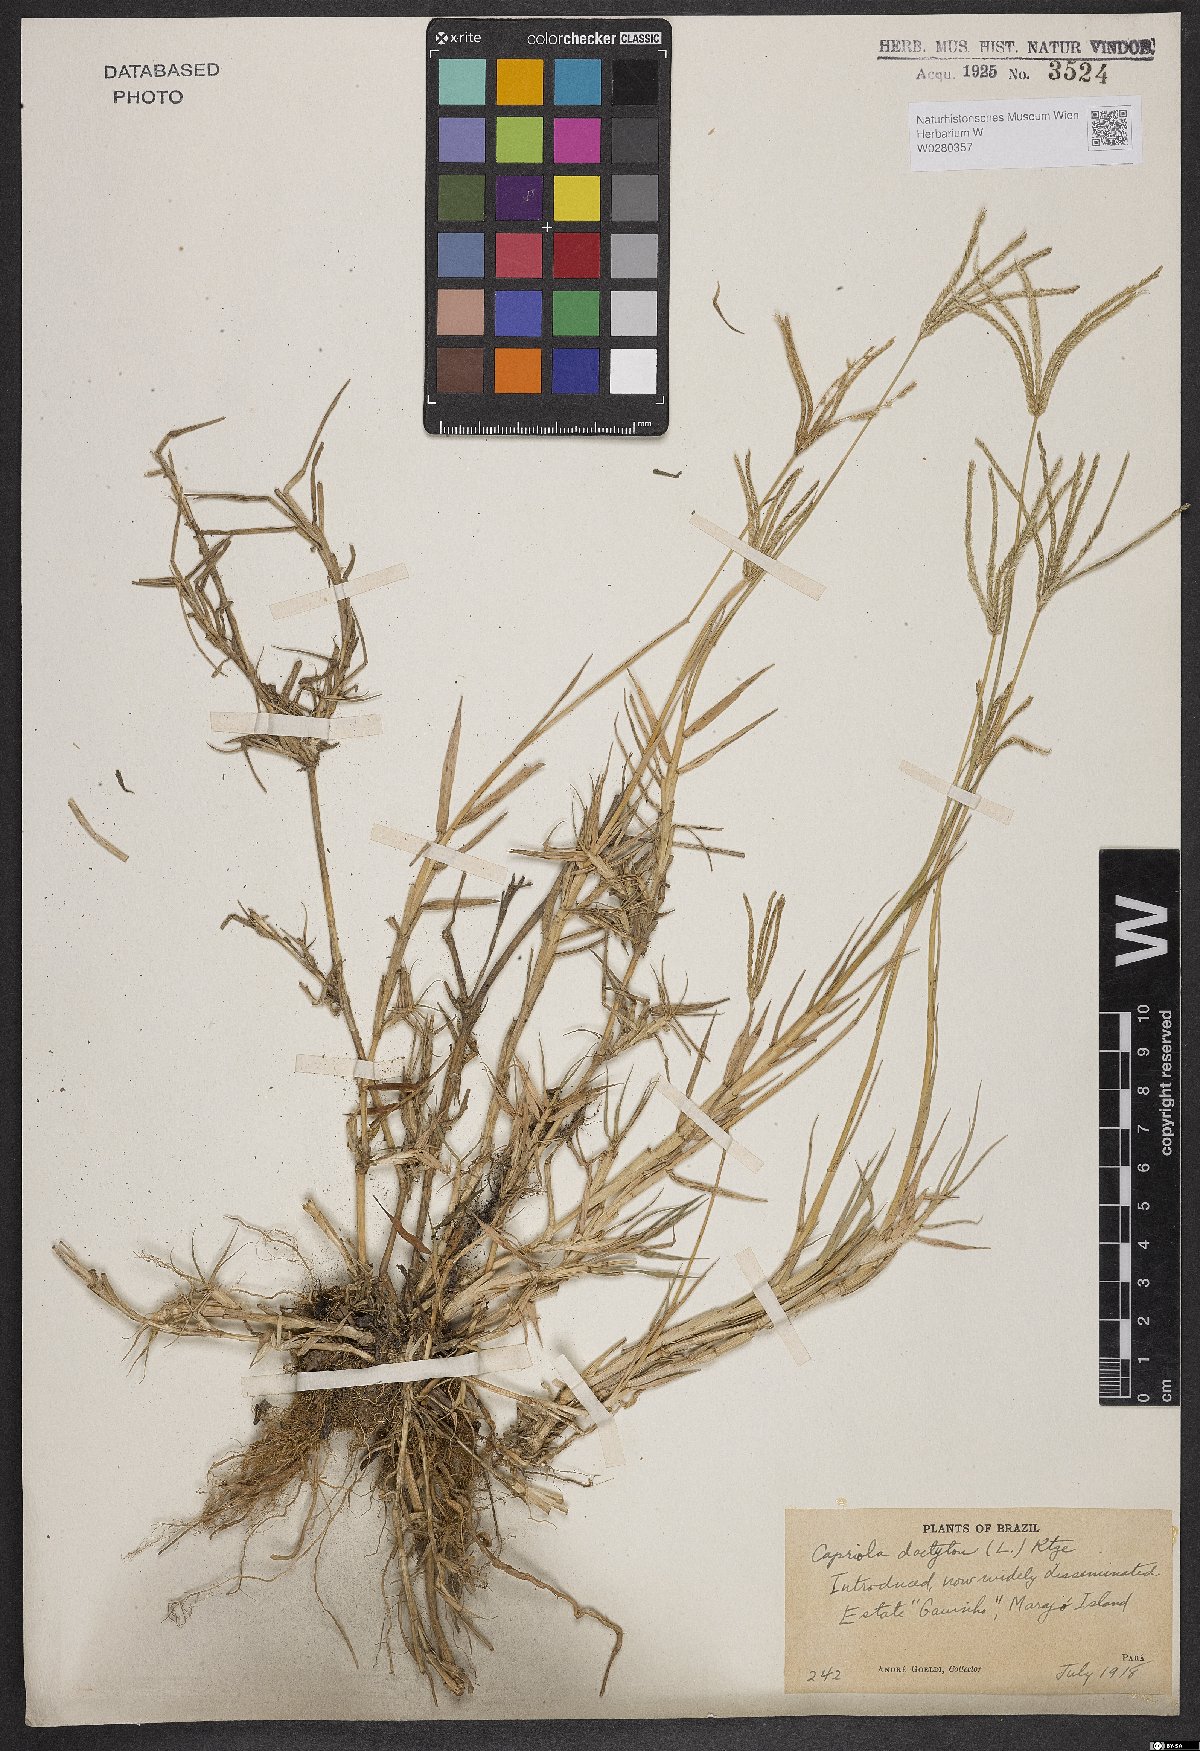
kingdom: Plantae
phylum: Tracheophyta
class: Liliopsida
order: Poales
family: Poaceae
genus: Cynodon
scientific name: Cynodon dactylon
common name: Bermuda grass
